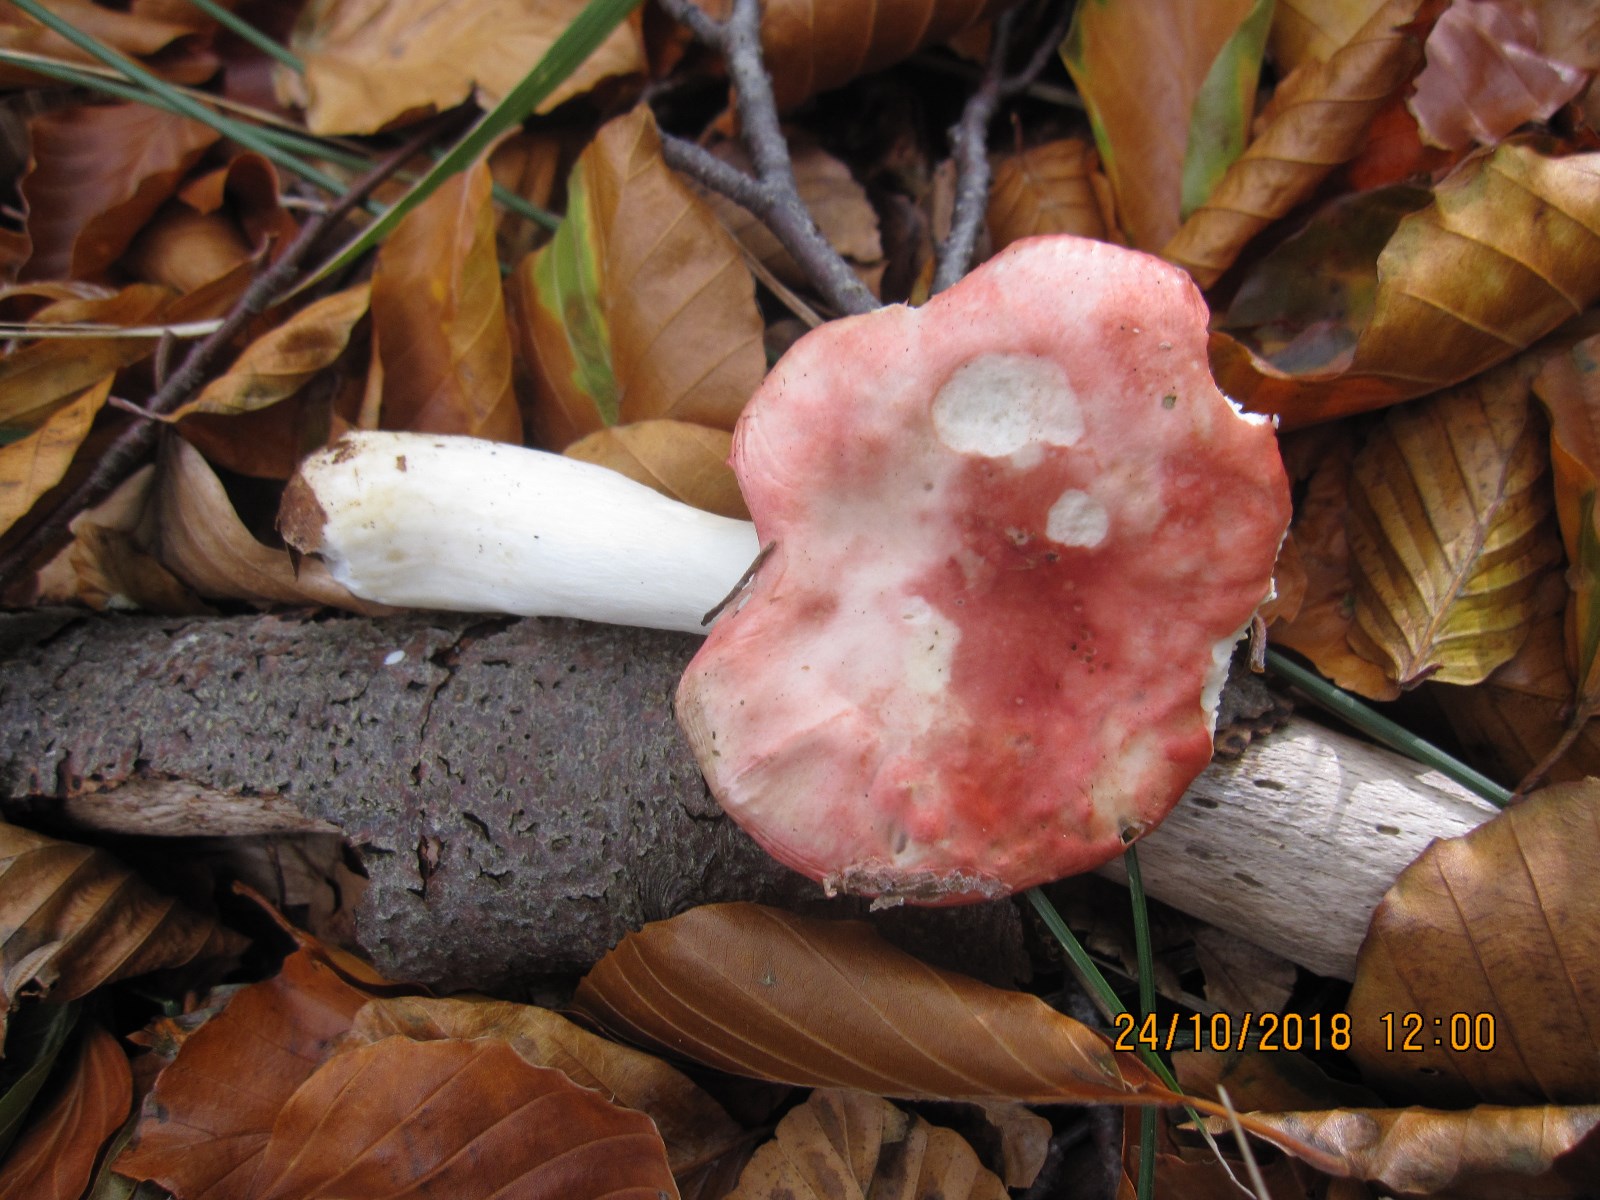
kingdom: Fungi
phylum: Basidiomycota
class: Agaricomycetes
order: Russulales
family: Russulaceae
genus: Russula
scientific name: Russula silvestris
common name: mellemstor gift-skørhat
